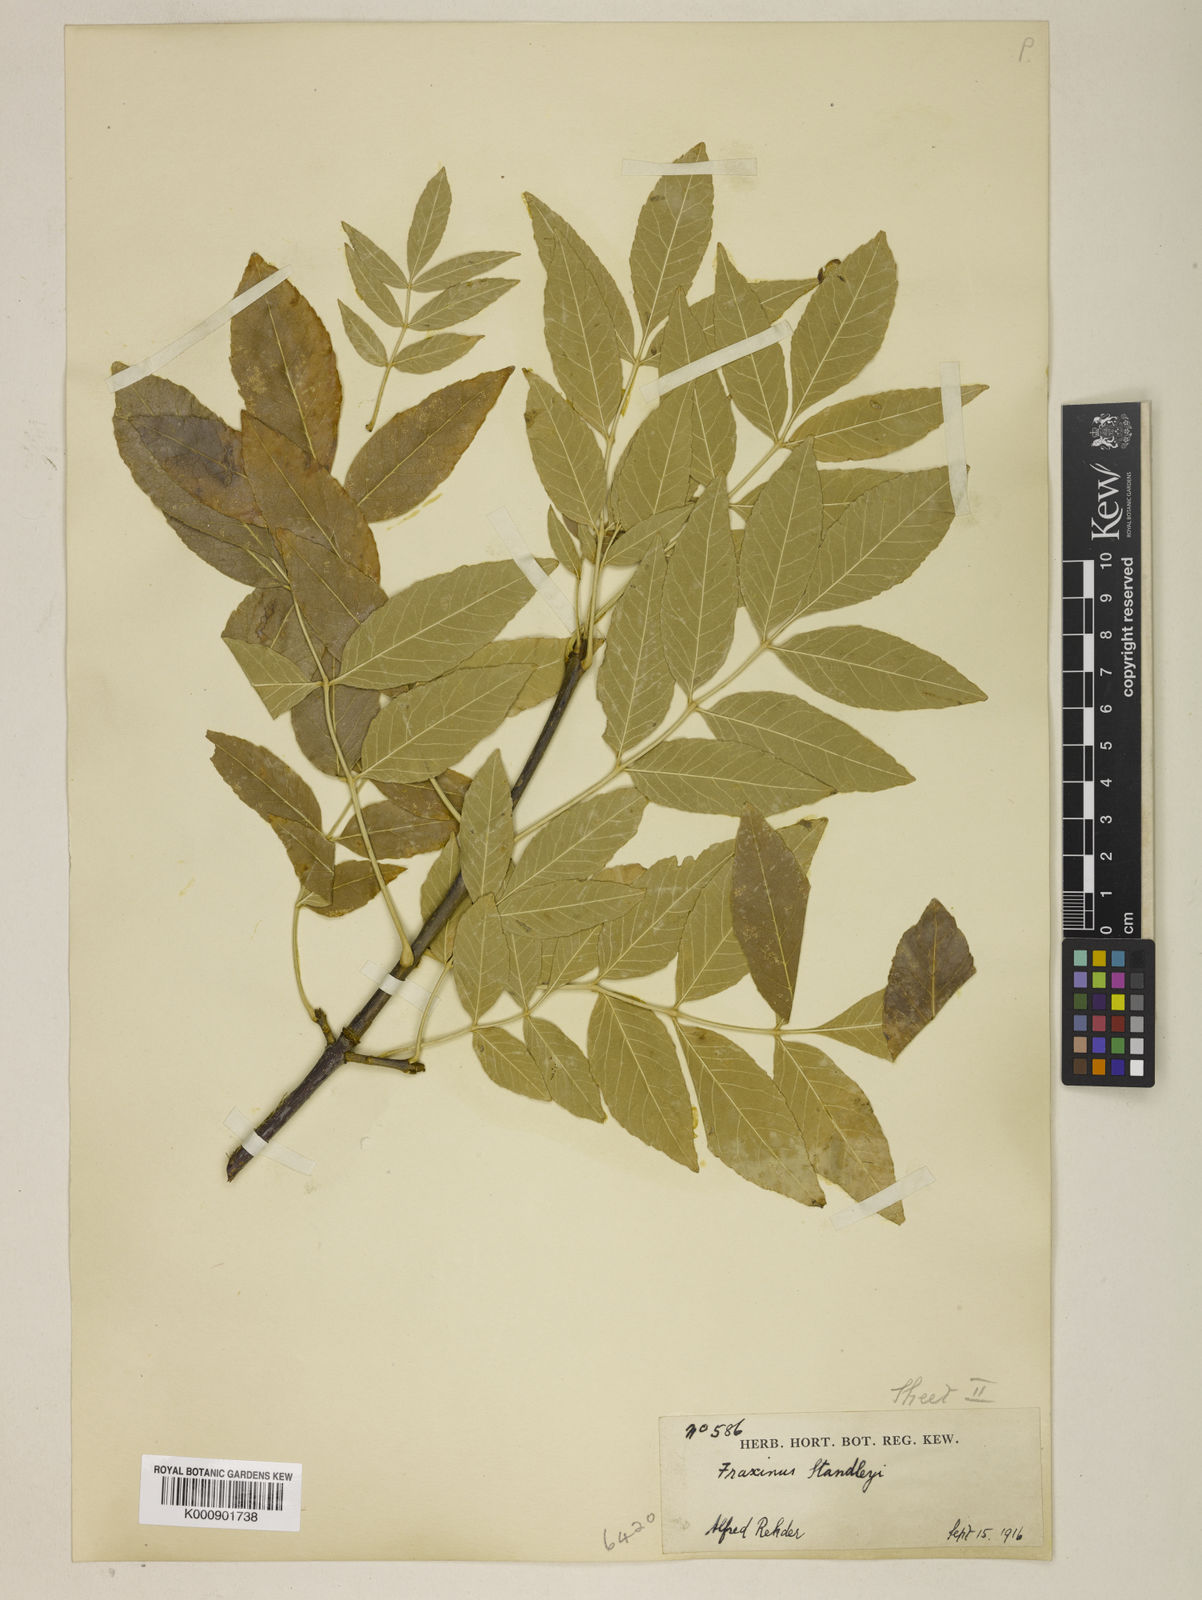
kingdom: Plantae
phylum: Tracheophyta
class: Magnoliopsida
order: Lamiales
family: Oleaceae
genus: Fraxinus
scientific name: Fraxinus pennsylvanica
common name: Green ash
